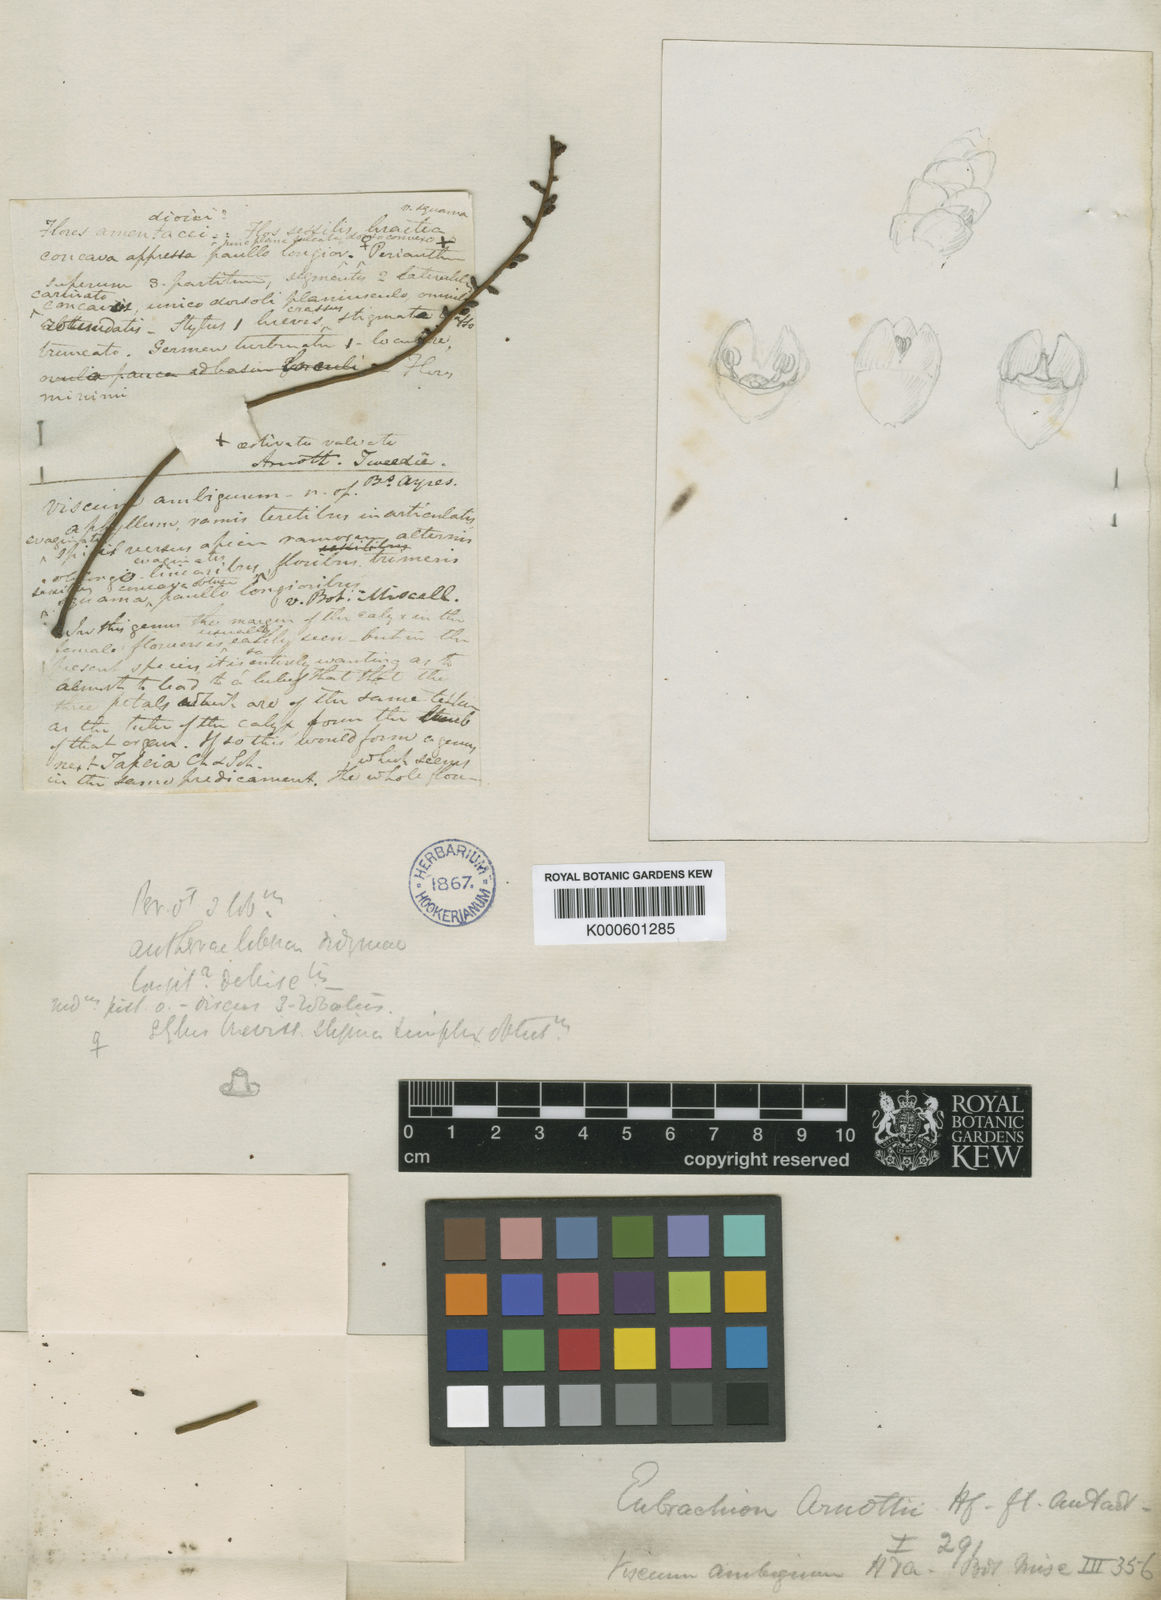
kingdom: Plantae
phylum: Tracheophyta
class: Magnoliopsida
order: Santalales
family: Santalaceae
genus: Eubrachion
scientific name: Eubrachion ambiguum
